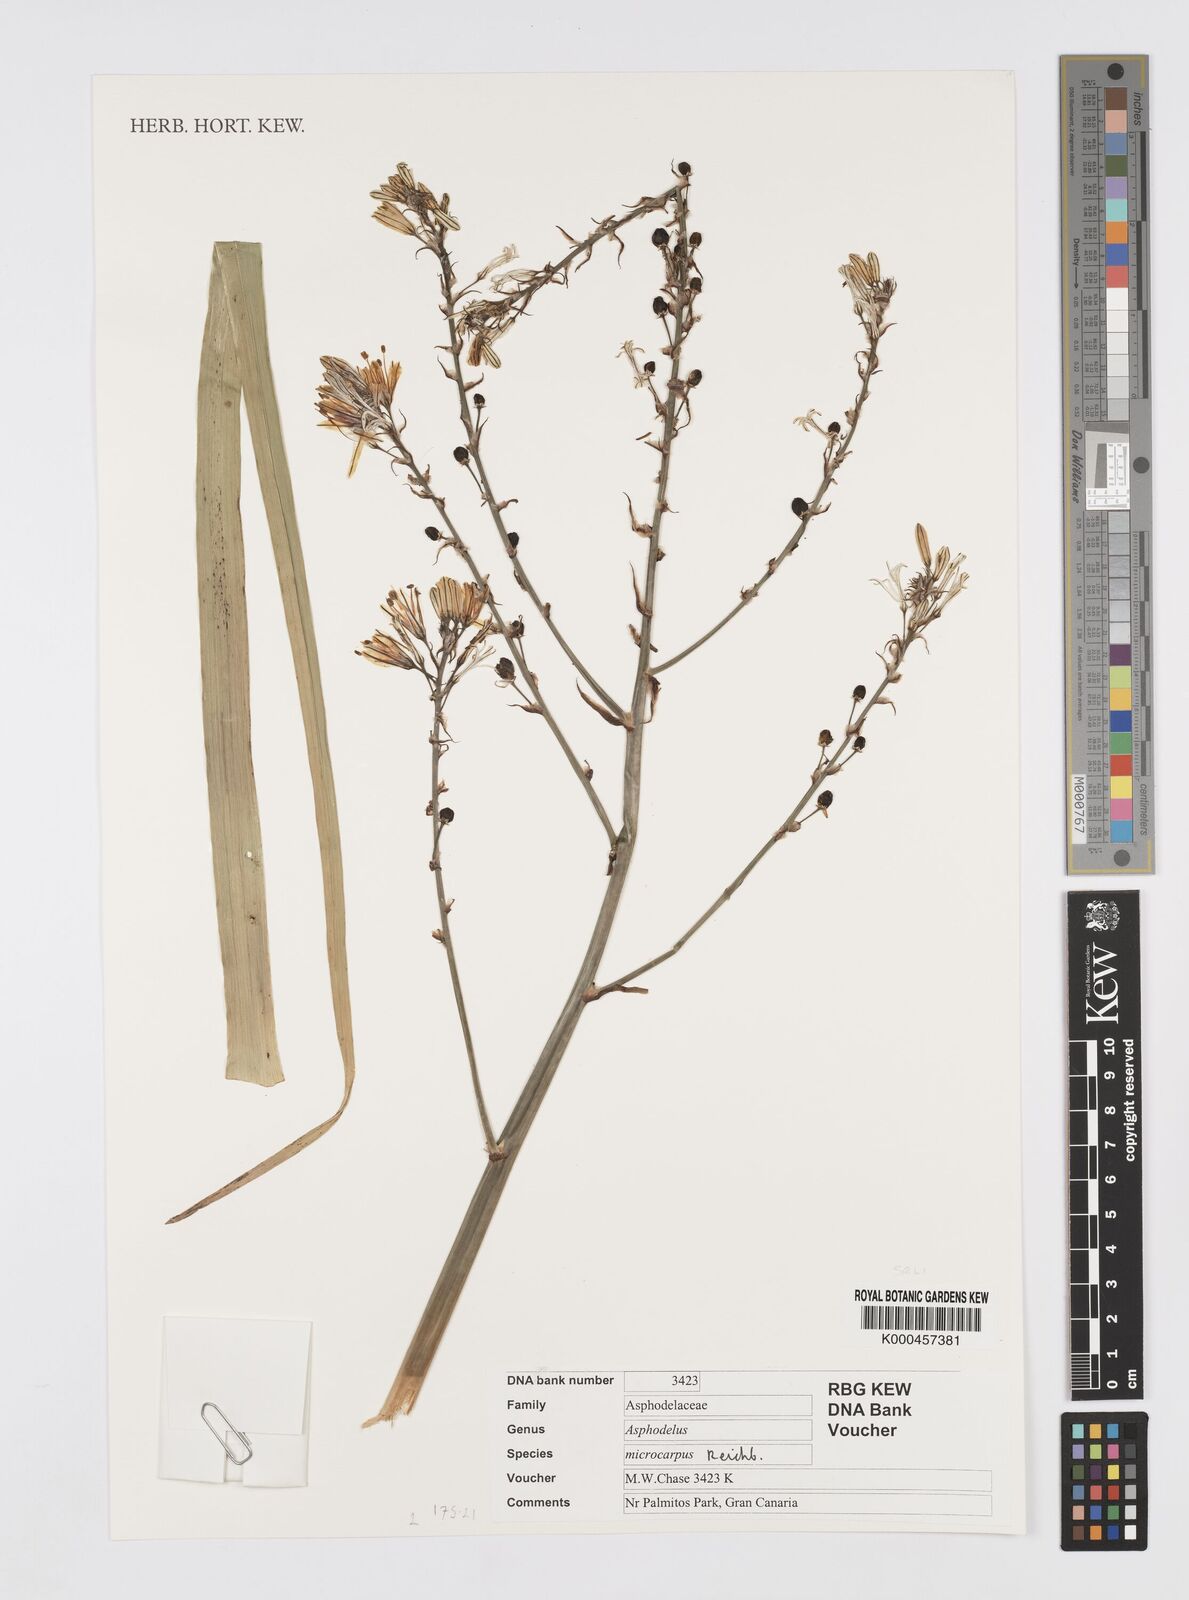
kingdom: Plantae
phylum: Tracheophyta
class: Liliopsida
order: Asparagales
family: Asphodelaceae
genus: Asphodelus
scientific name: Asphodelus aestivus
